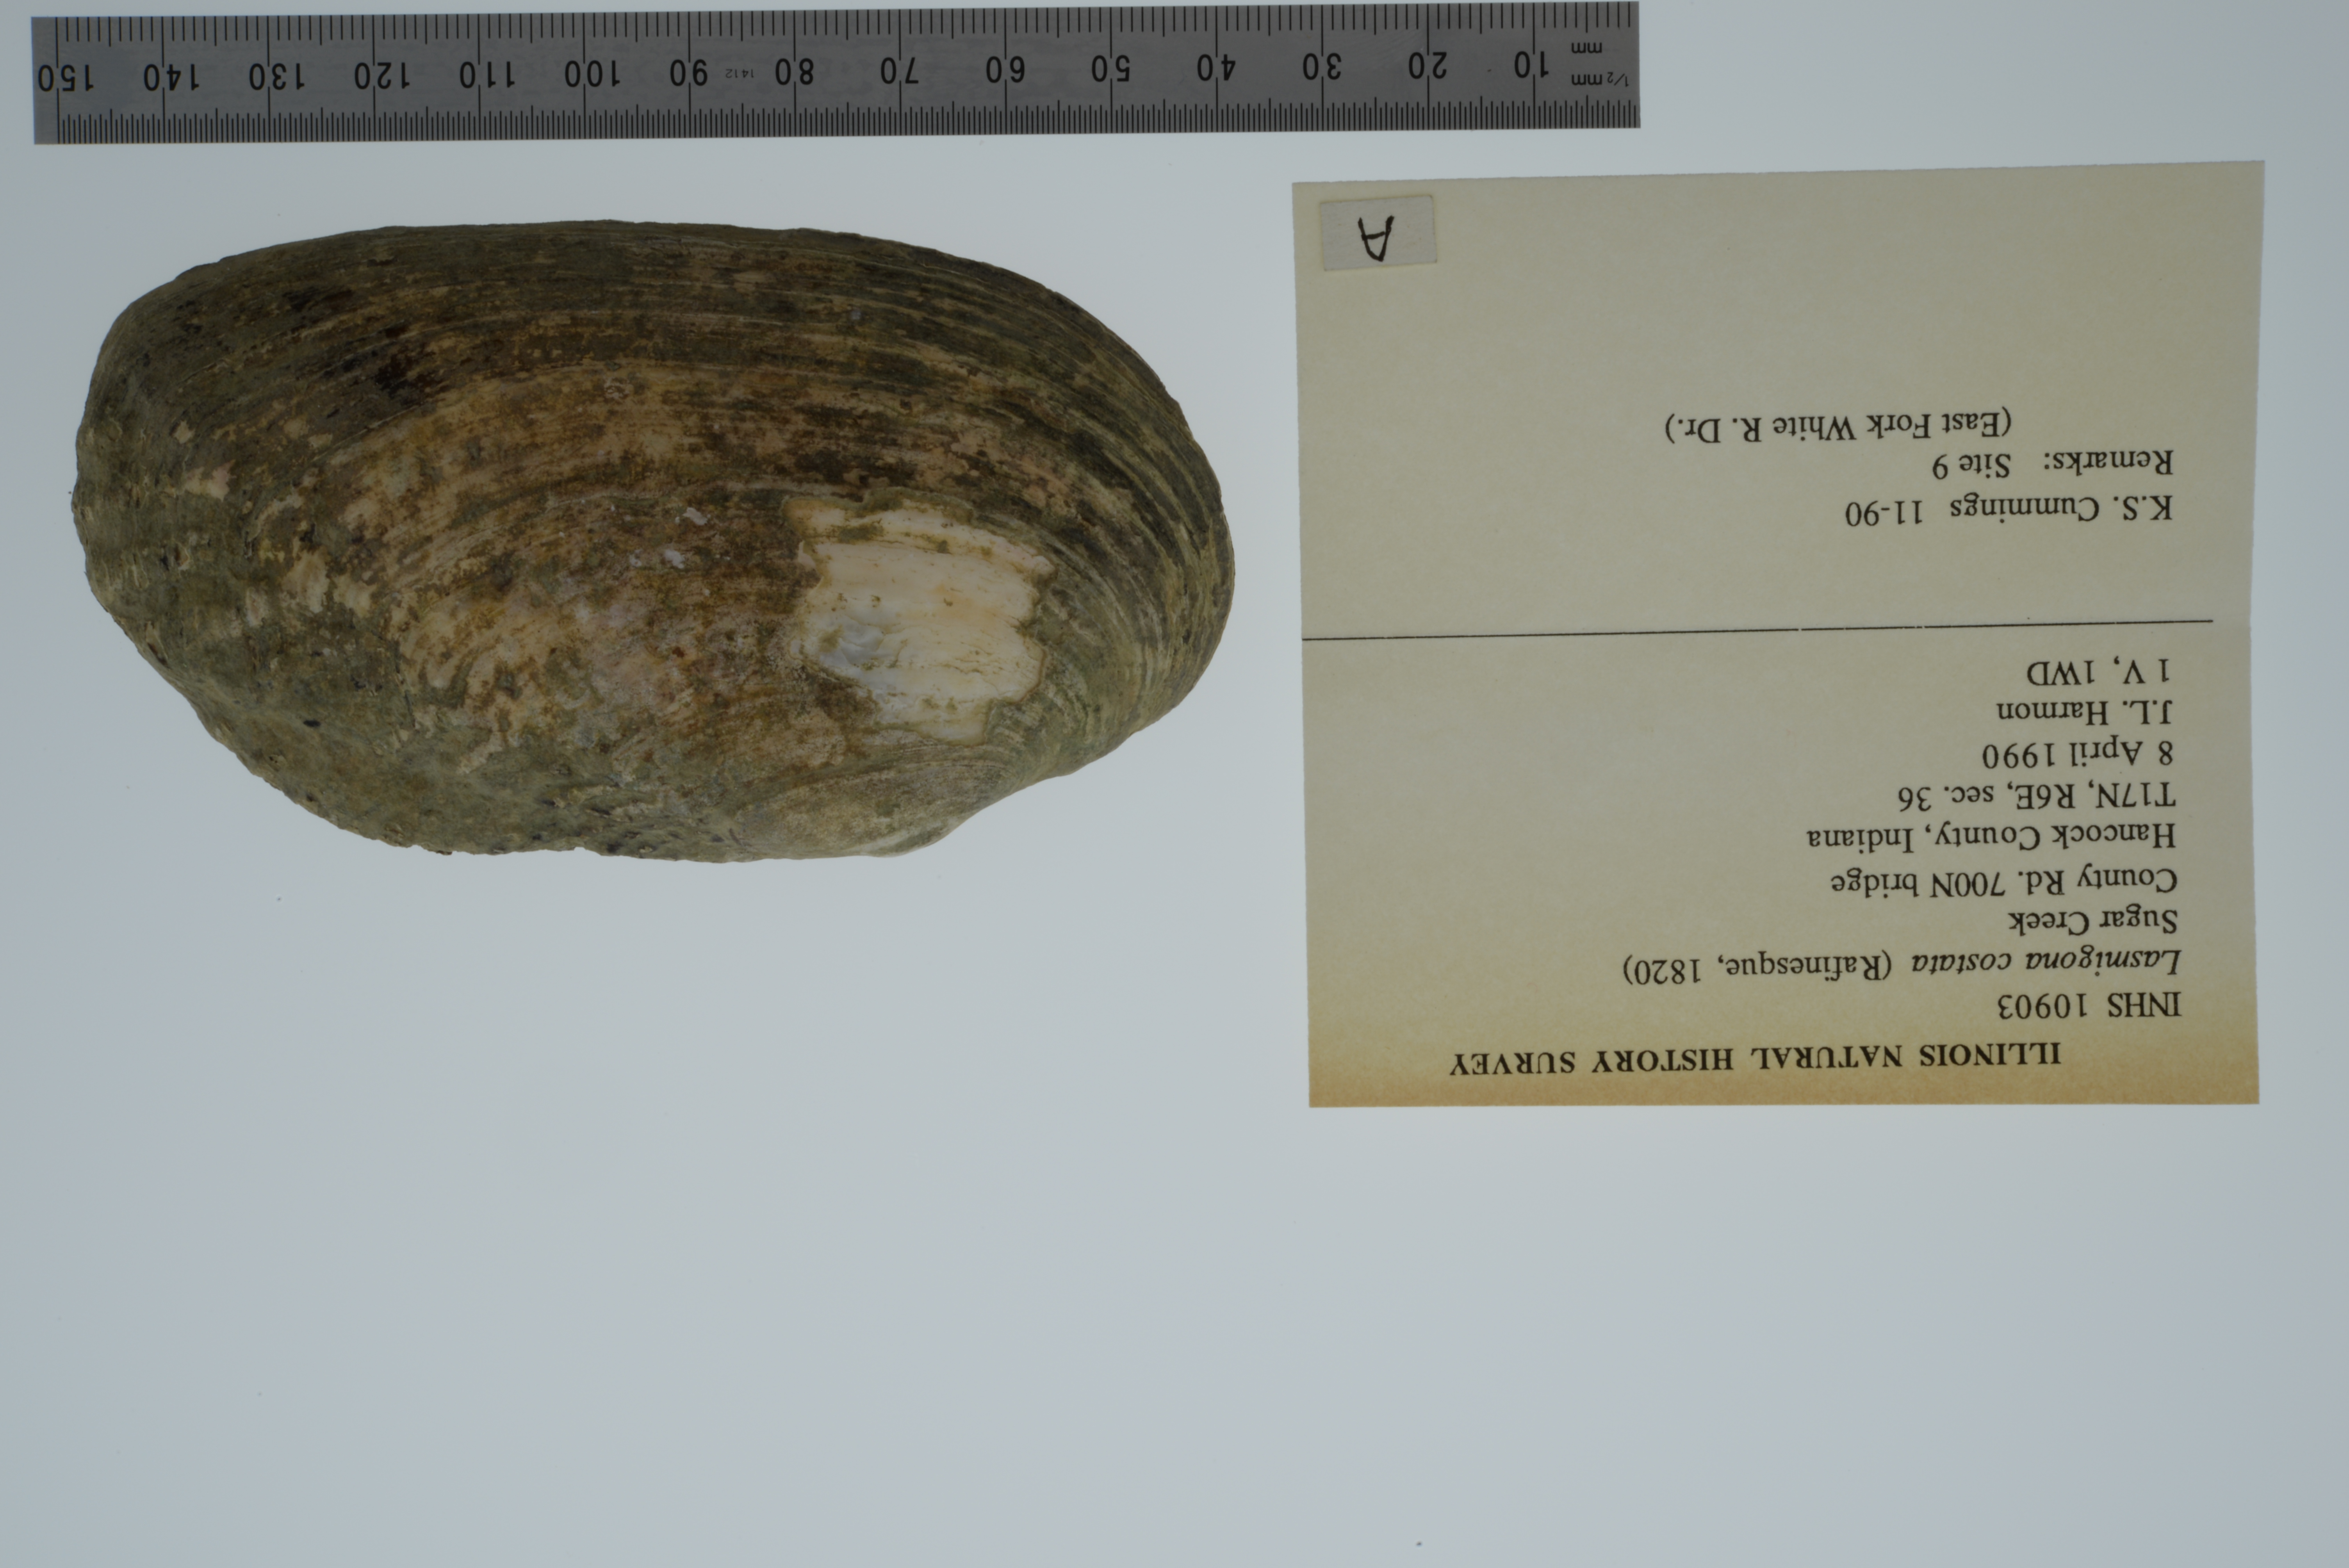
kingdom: Animalia
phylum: Mollusca
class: Bivalvia
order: Unionida
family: Unionidae
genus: Lasmigona
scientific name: Lasmigona costata
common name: Flutedshell
